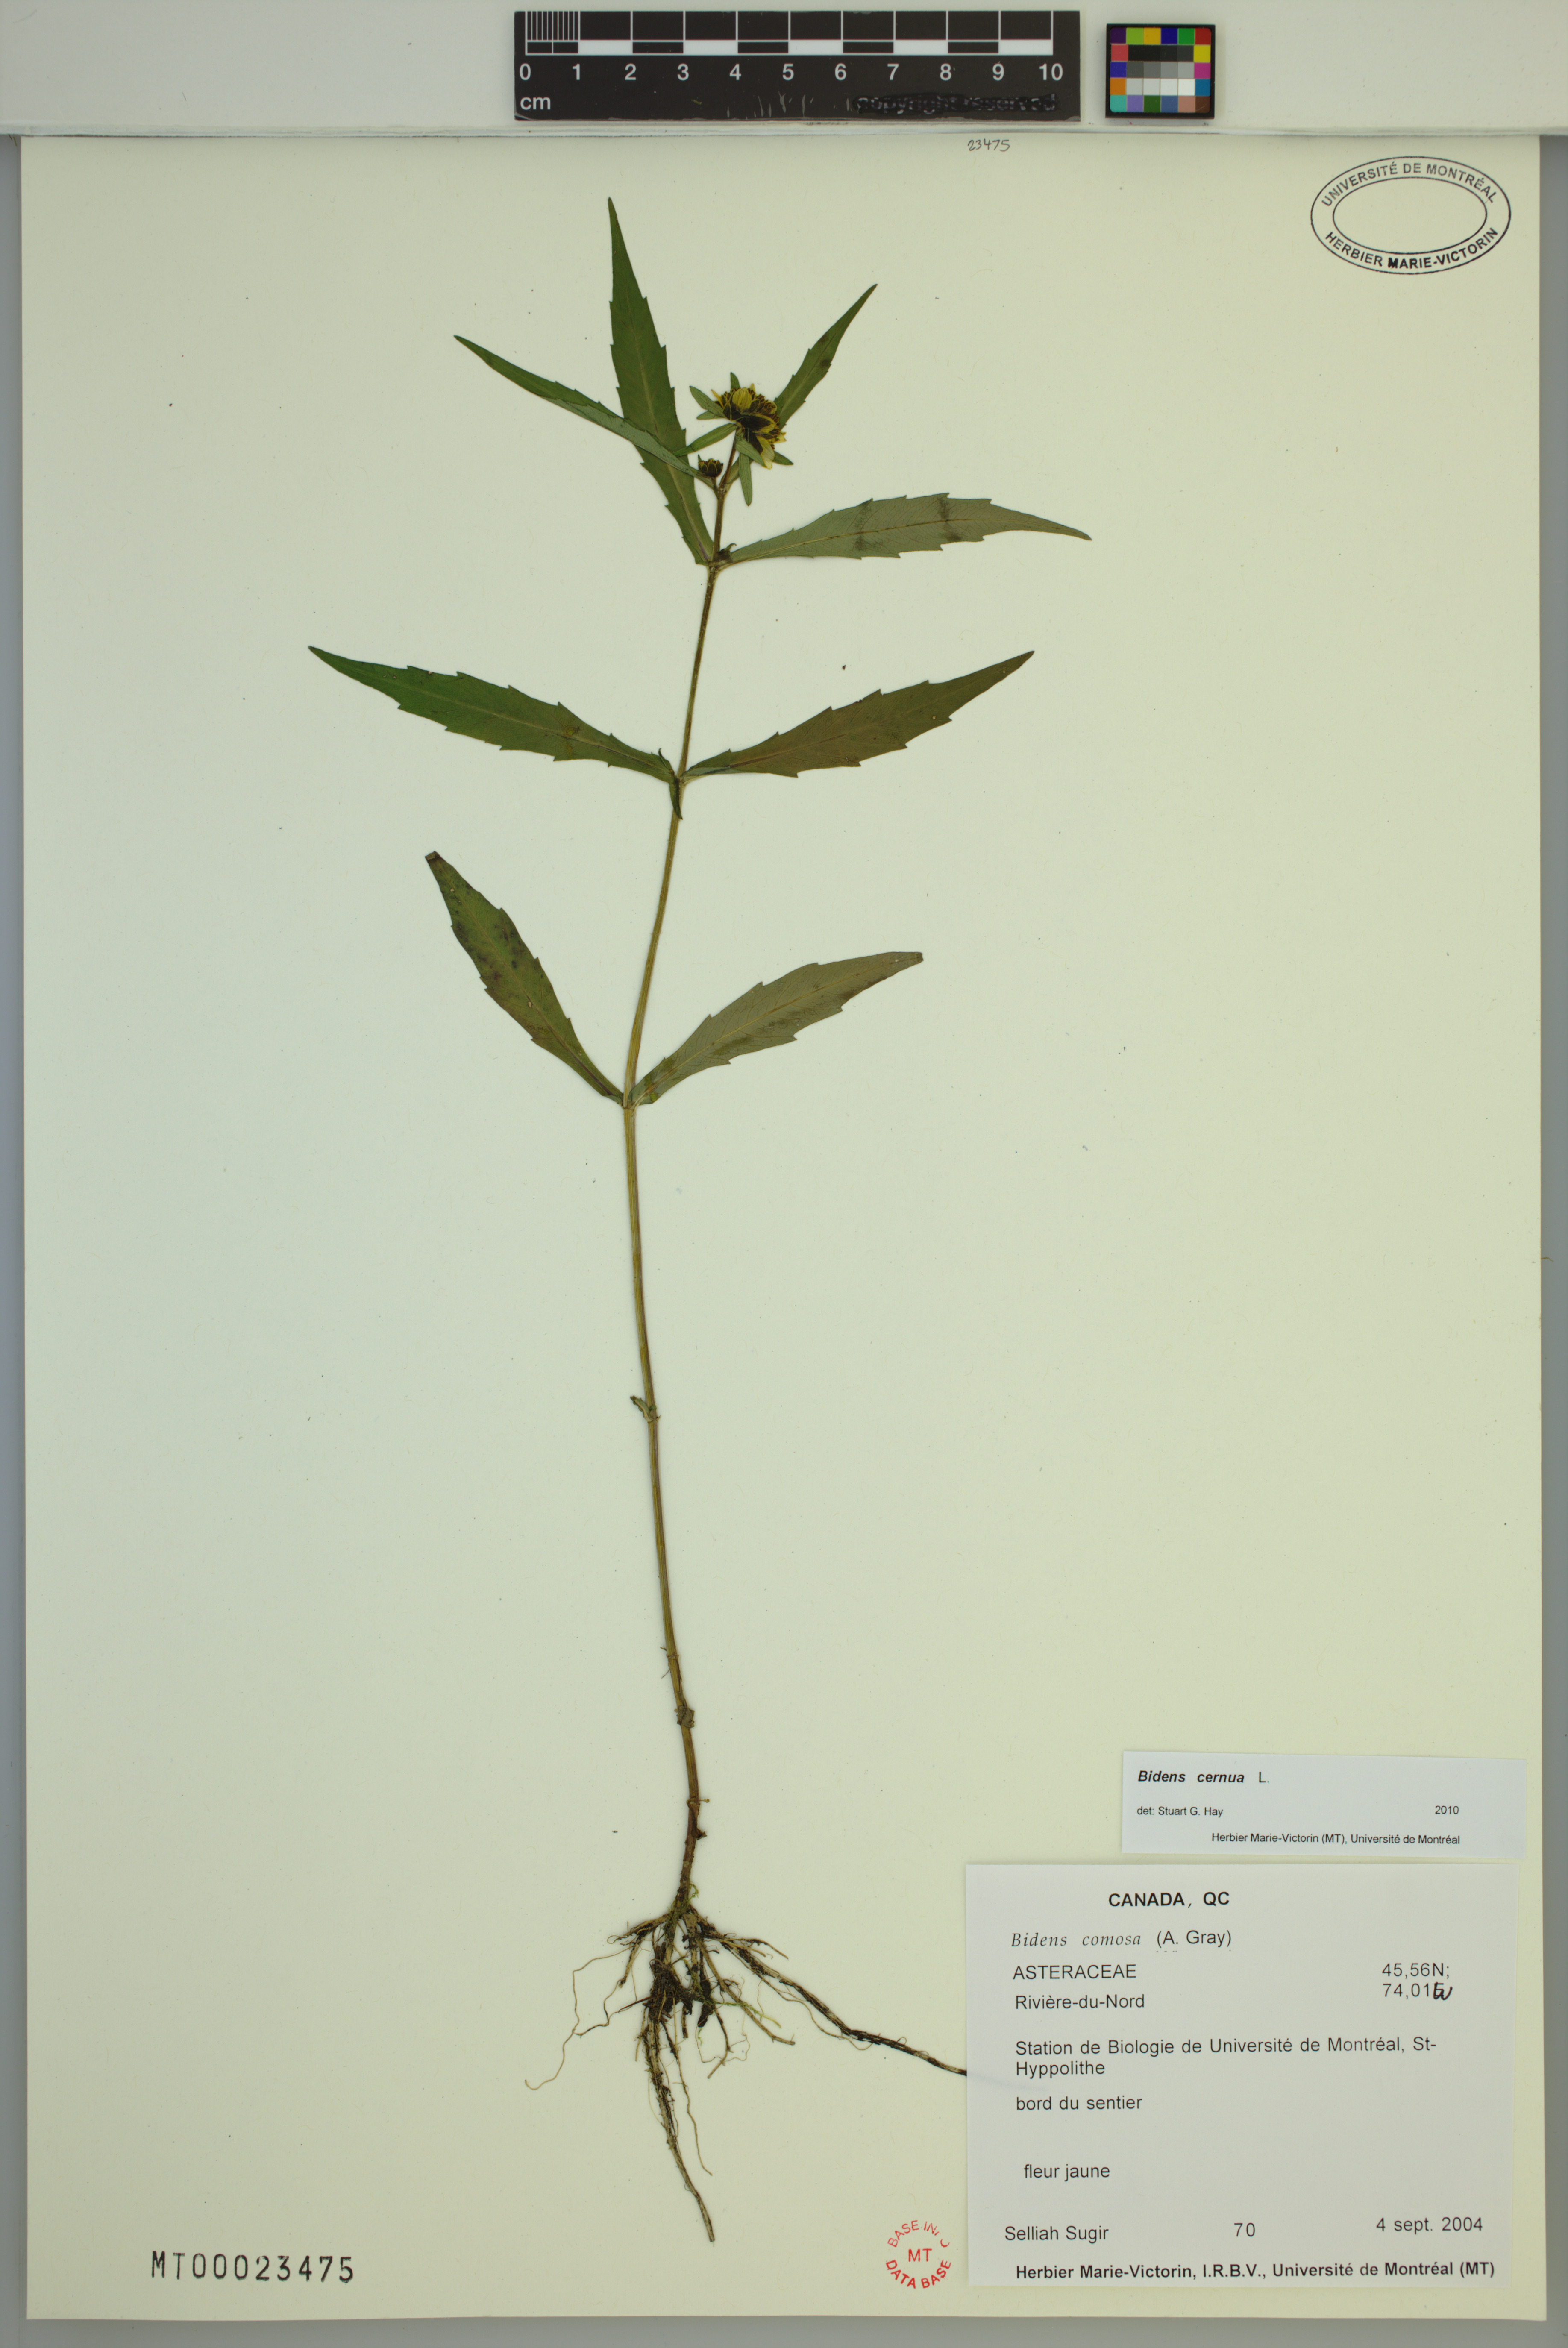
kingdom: Plantae
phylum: Tracheophyta
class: Magnoliopsida
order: Asterales
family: Asteraceae
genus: Bidens
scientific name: Bidens cernua
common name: Nodding bur-marigold
